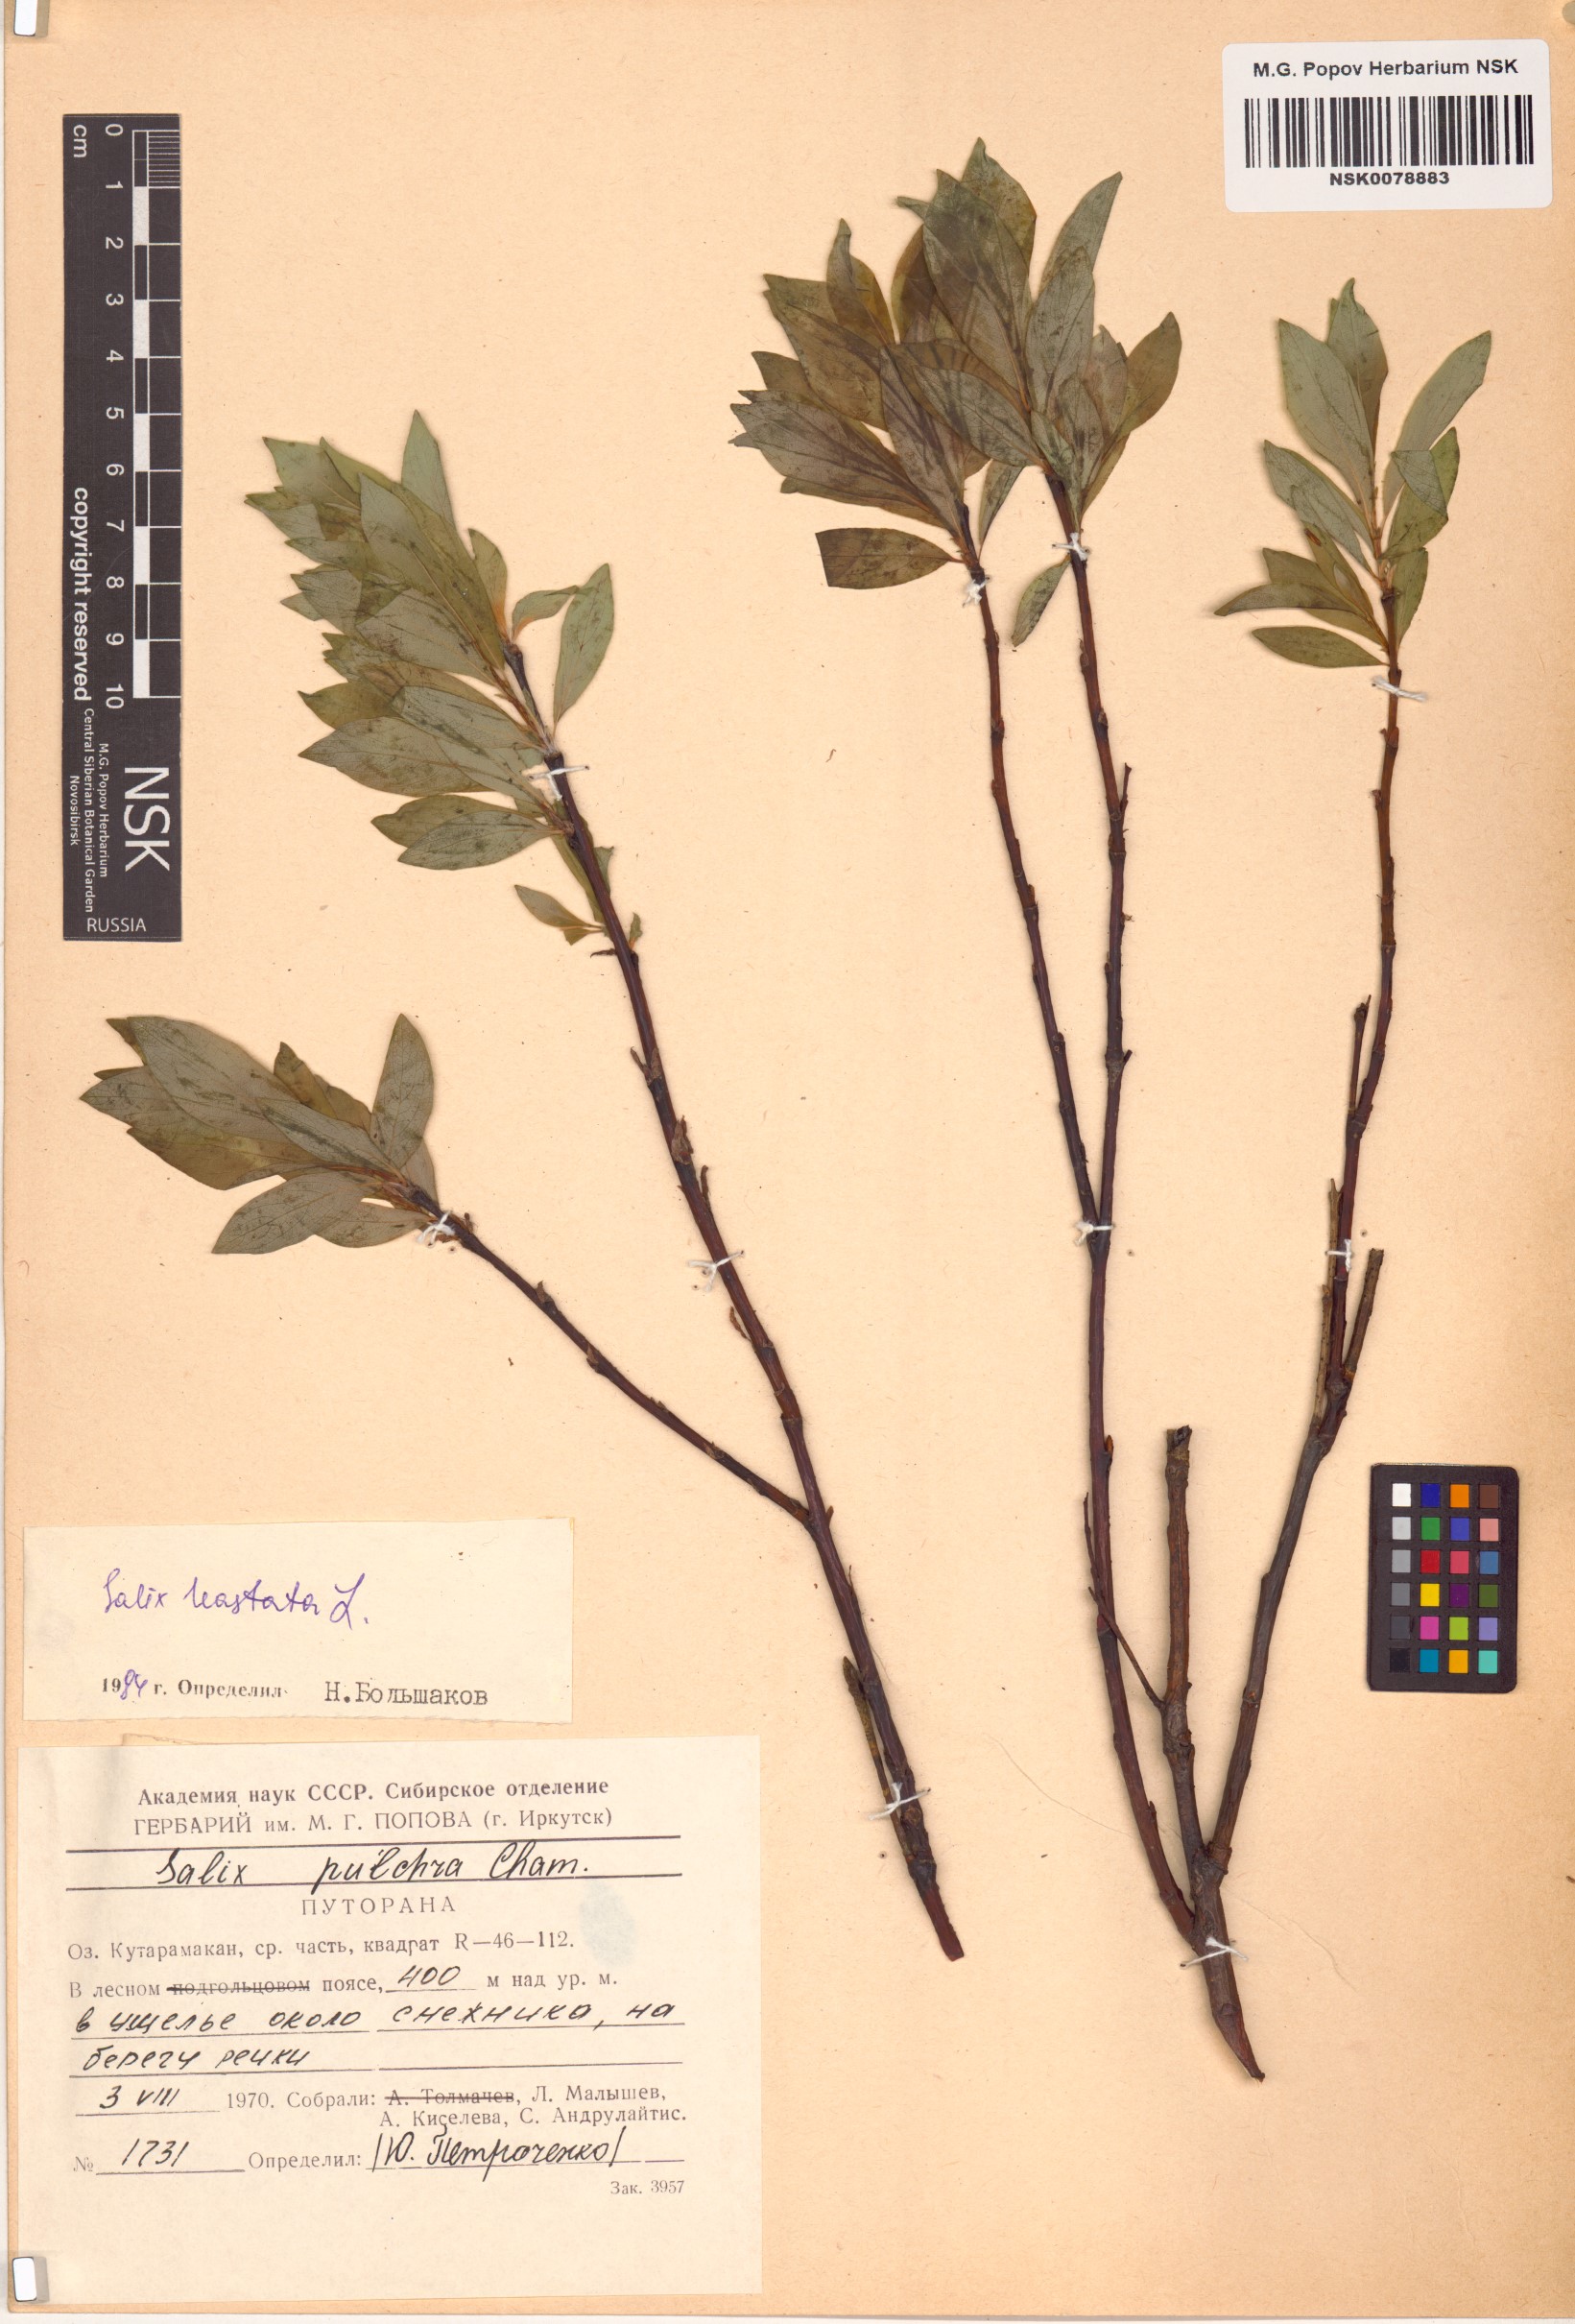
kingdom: Plantae
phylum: Tracheophyta
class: Magnoliopsida
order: Malpighiales
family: Salicaceae
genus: Salix
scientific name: Salix hastata
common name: Halberd willow
